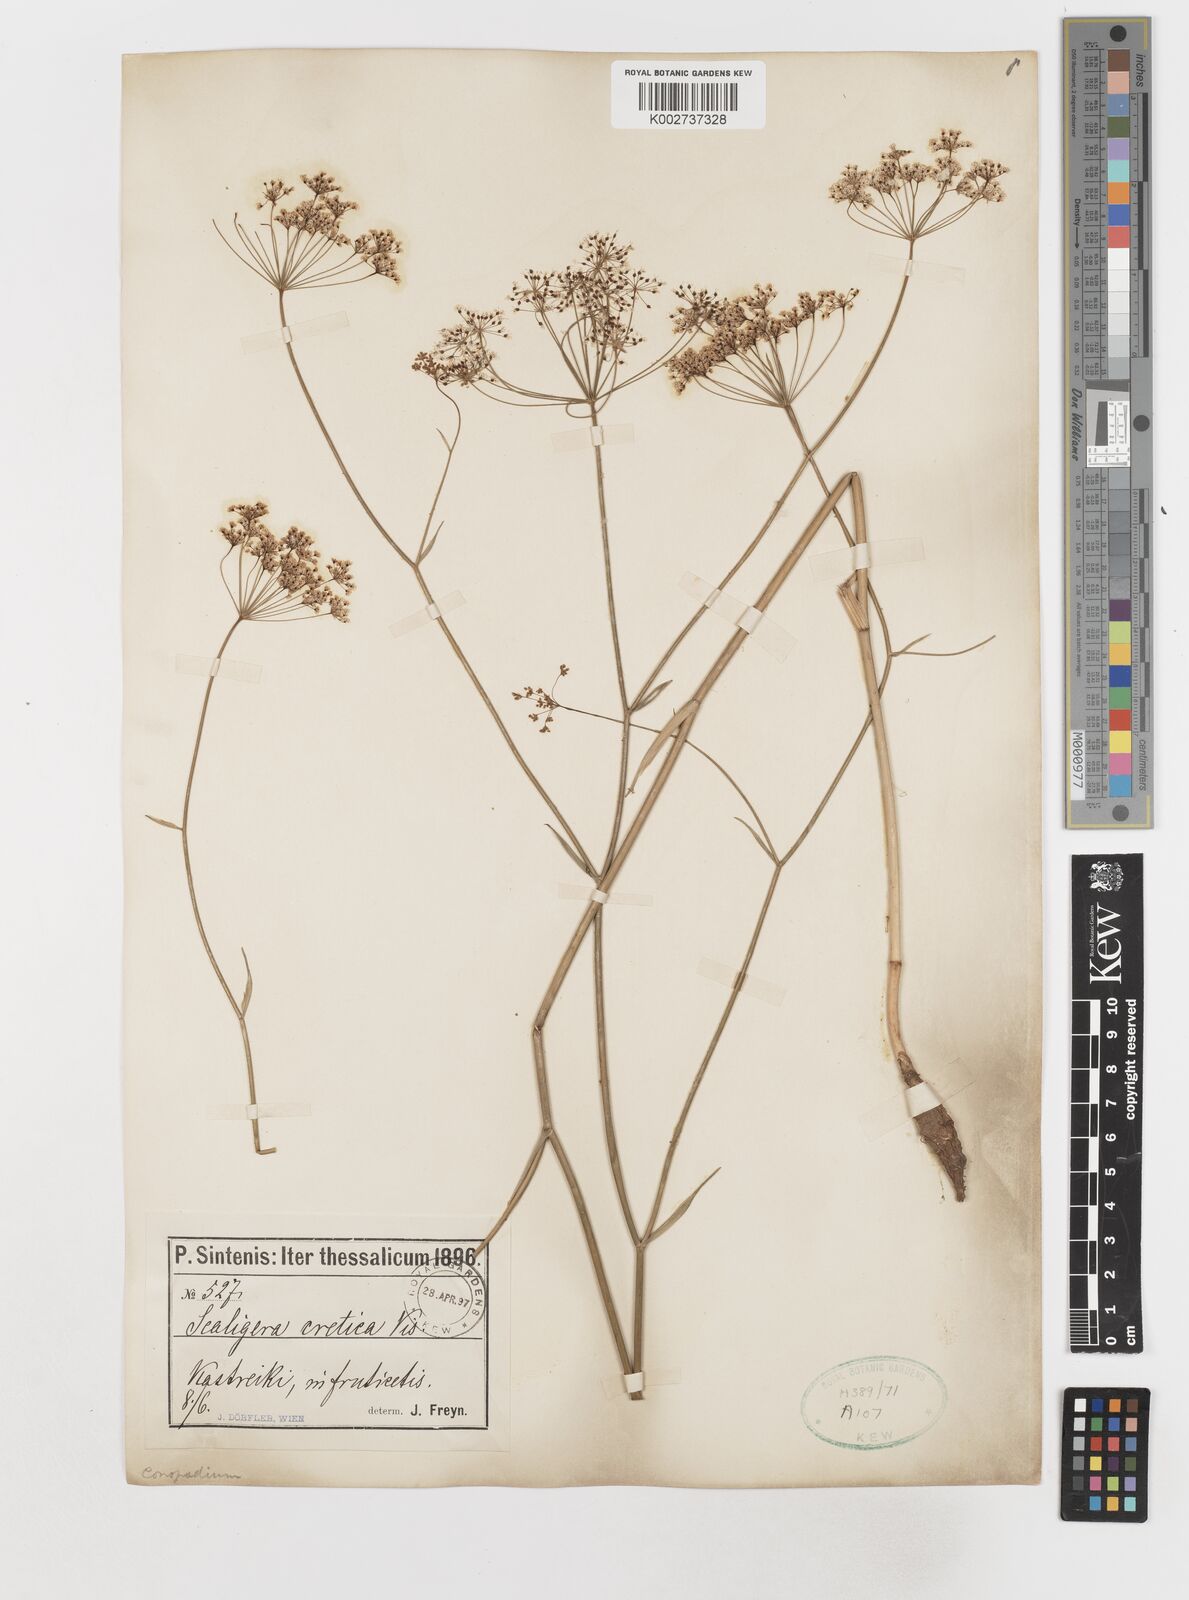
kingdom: Plantae
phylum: Tracheophyta
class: Magnoliopsida
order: Apiales
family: Apiaceae
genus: Scaligeria
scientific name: Scaligeria napiformis
